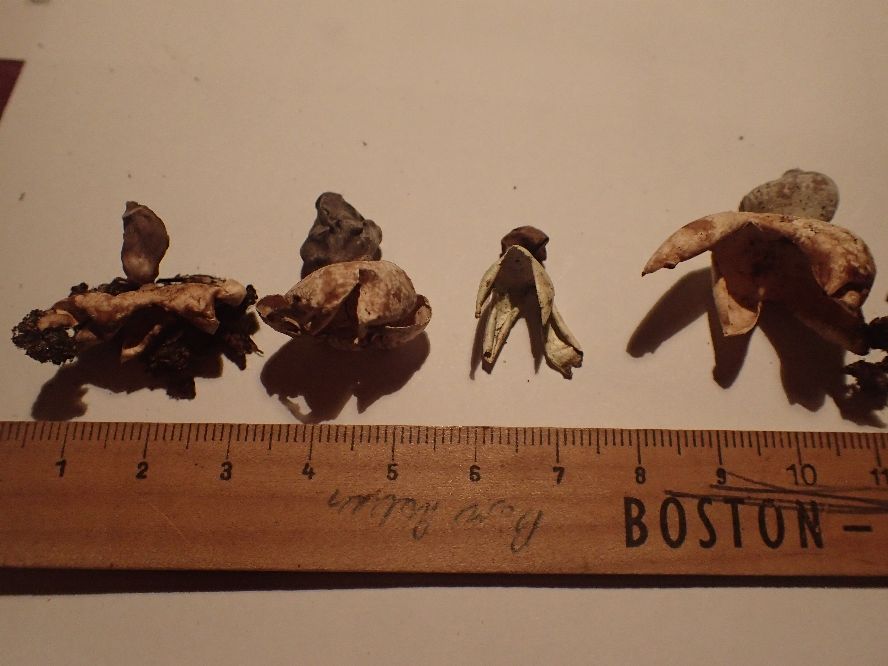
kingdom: Fungi
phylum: Basidiomycota
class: Agaricomycetes
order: Geastrales
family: Geastraceae
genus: Geastrum
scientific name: Geastrum quadrifidum
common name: firfliget stjernebold
